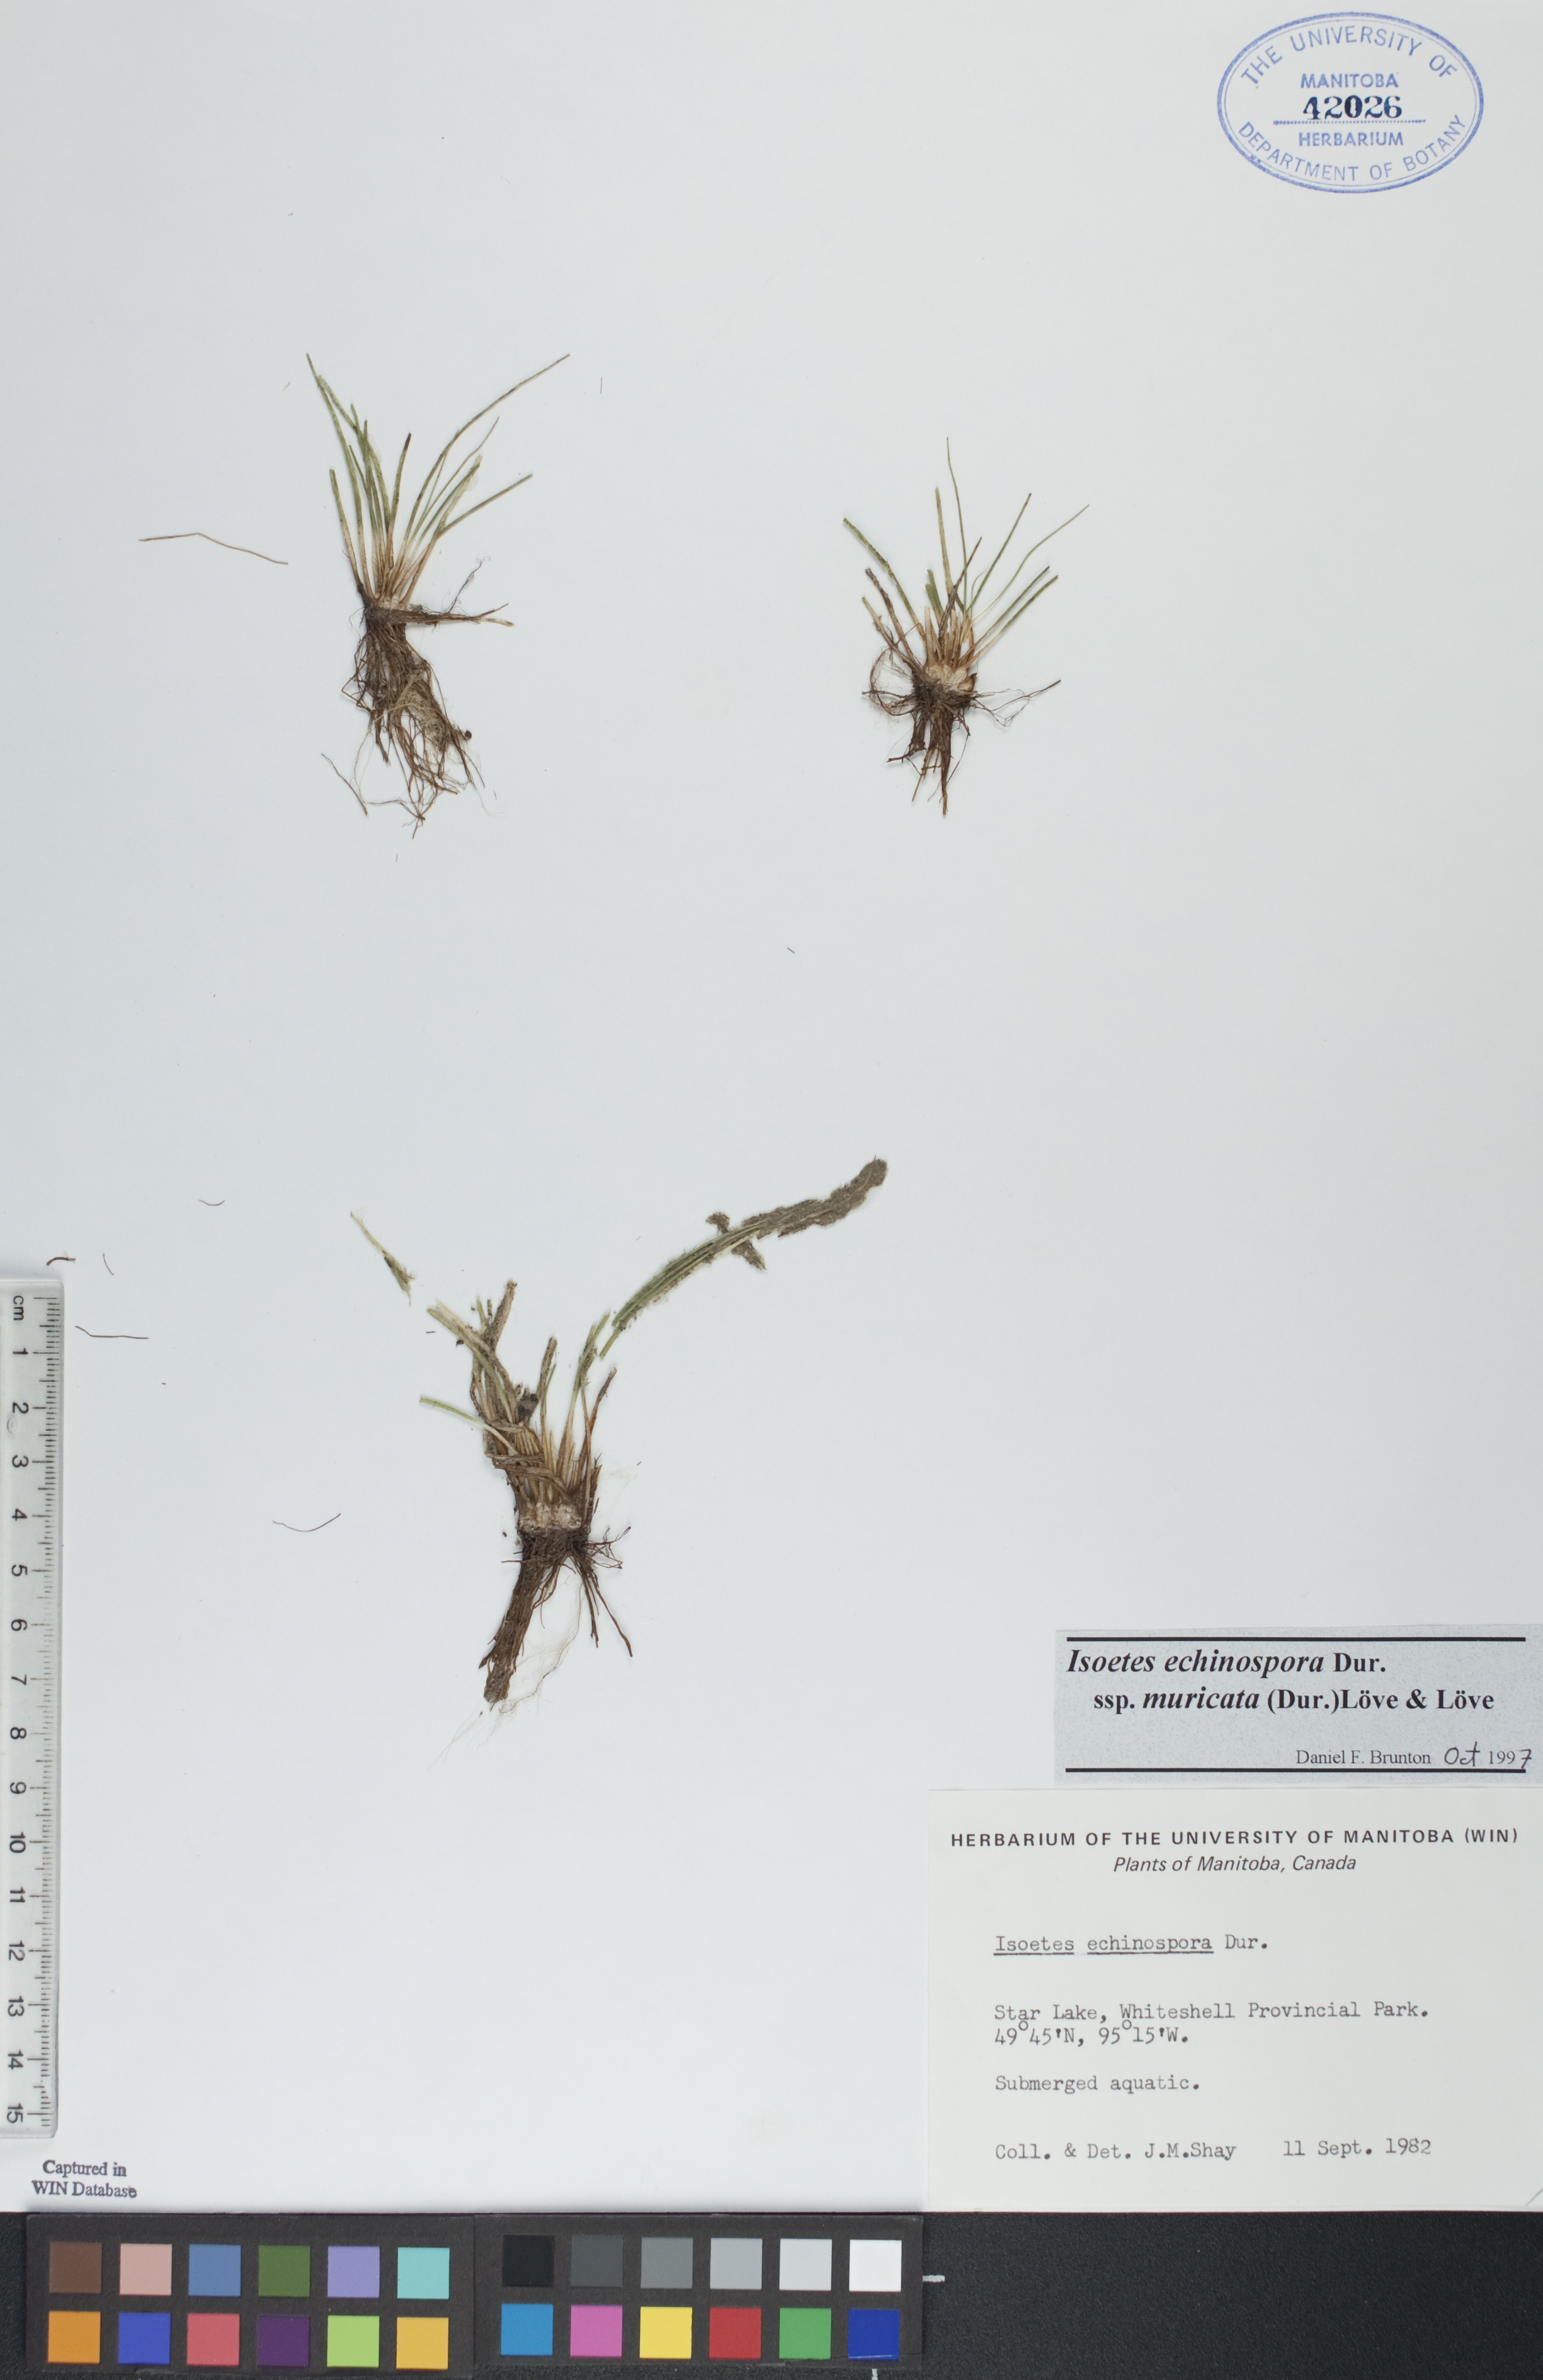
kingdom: Plantae
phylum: Tracheophyta
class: Lycopodiopsida
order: Isoetales
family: Isoetaceae
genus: Isoetes
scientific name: Isoetes echinospora
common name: Spring quillwort
